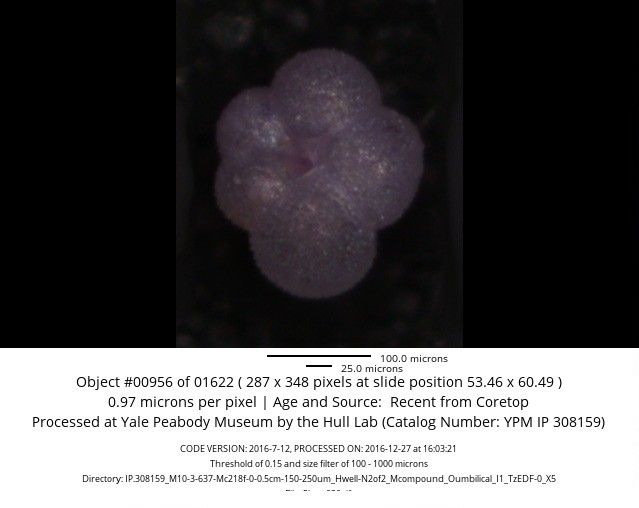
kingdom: Chromista
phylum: Foraminifera
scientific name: Foraminifera
